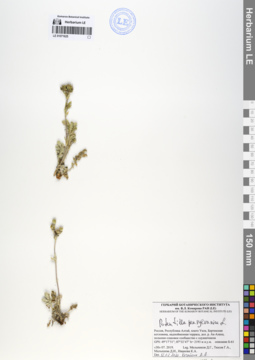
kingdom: Plantae
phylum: Tracheophyta
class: Magnoliopsida
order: Rosales
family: Rosaceae
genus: Potentilla
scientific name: Potentilla pensylvanica
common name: Pennsylvania cinquefoil
